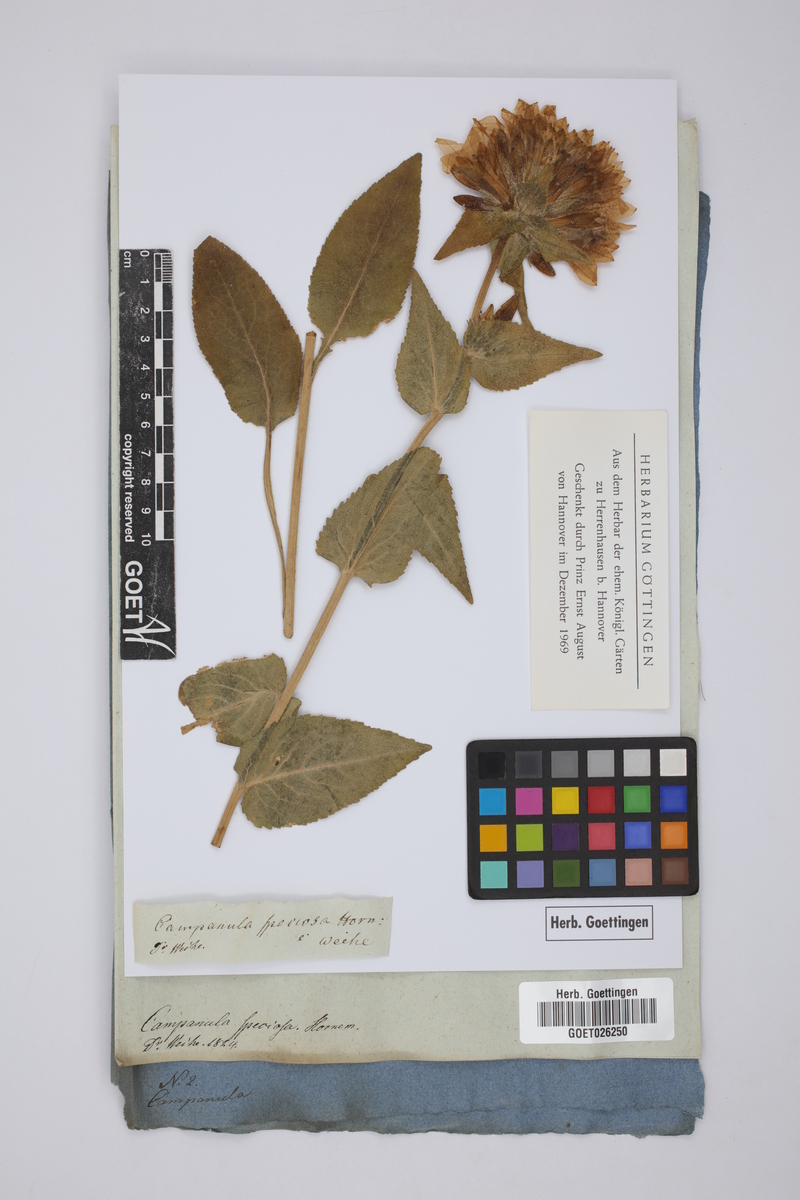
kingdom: Plantae
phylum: Tracheophyta
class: Magnoliopsida
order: Asterales
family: Campanulaceae
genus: Campanula
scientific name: Campanula glomerata
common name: Clustered bellflower
